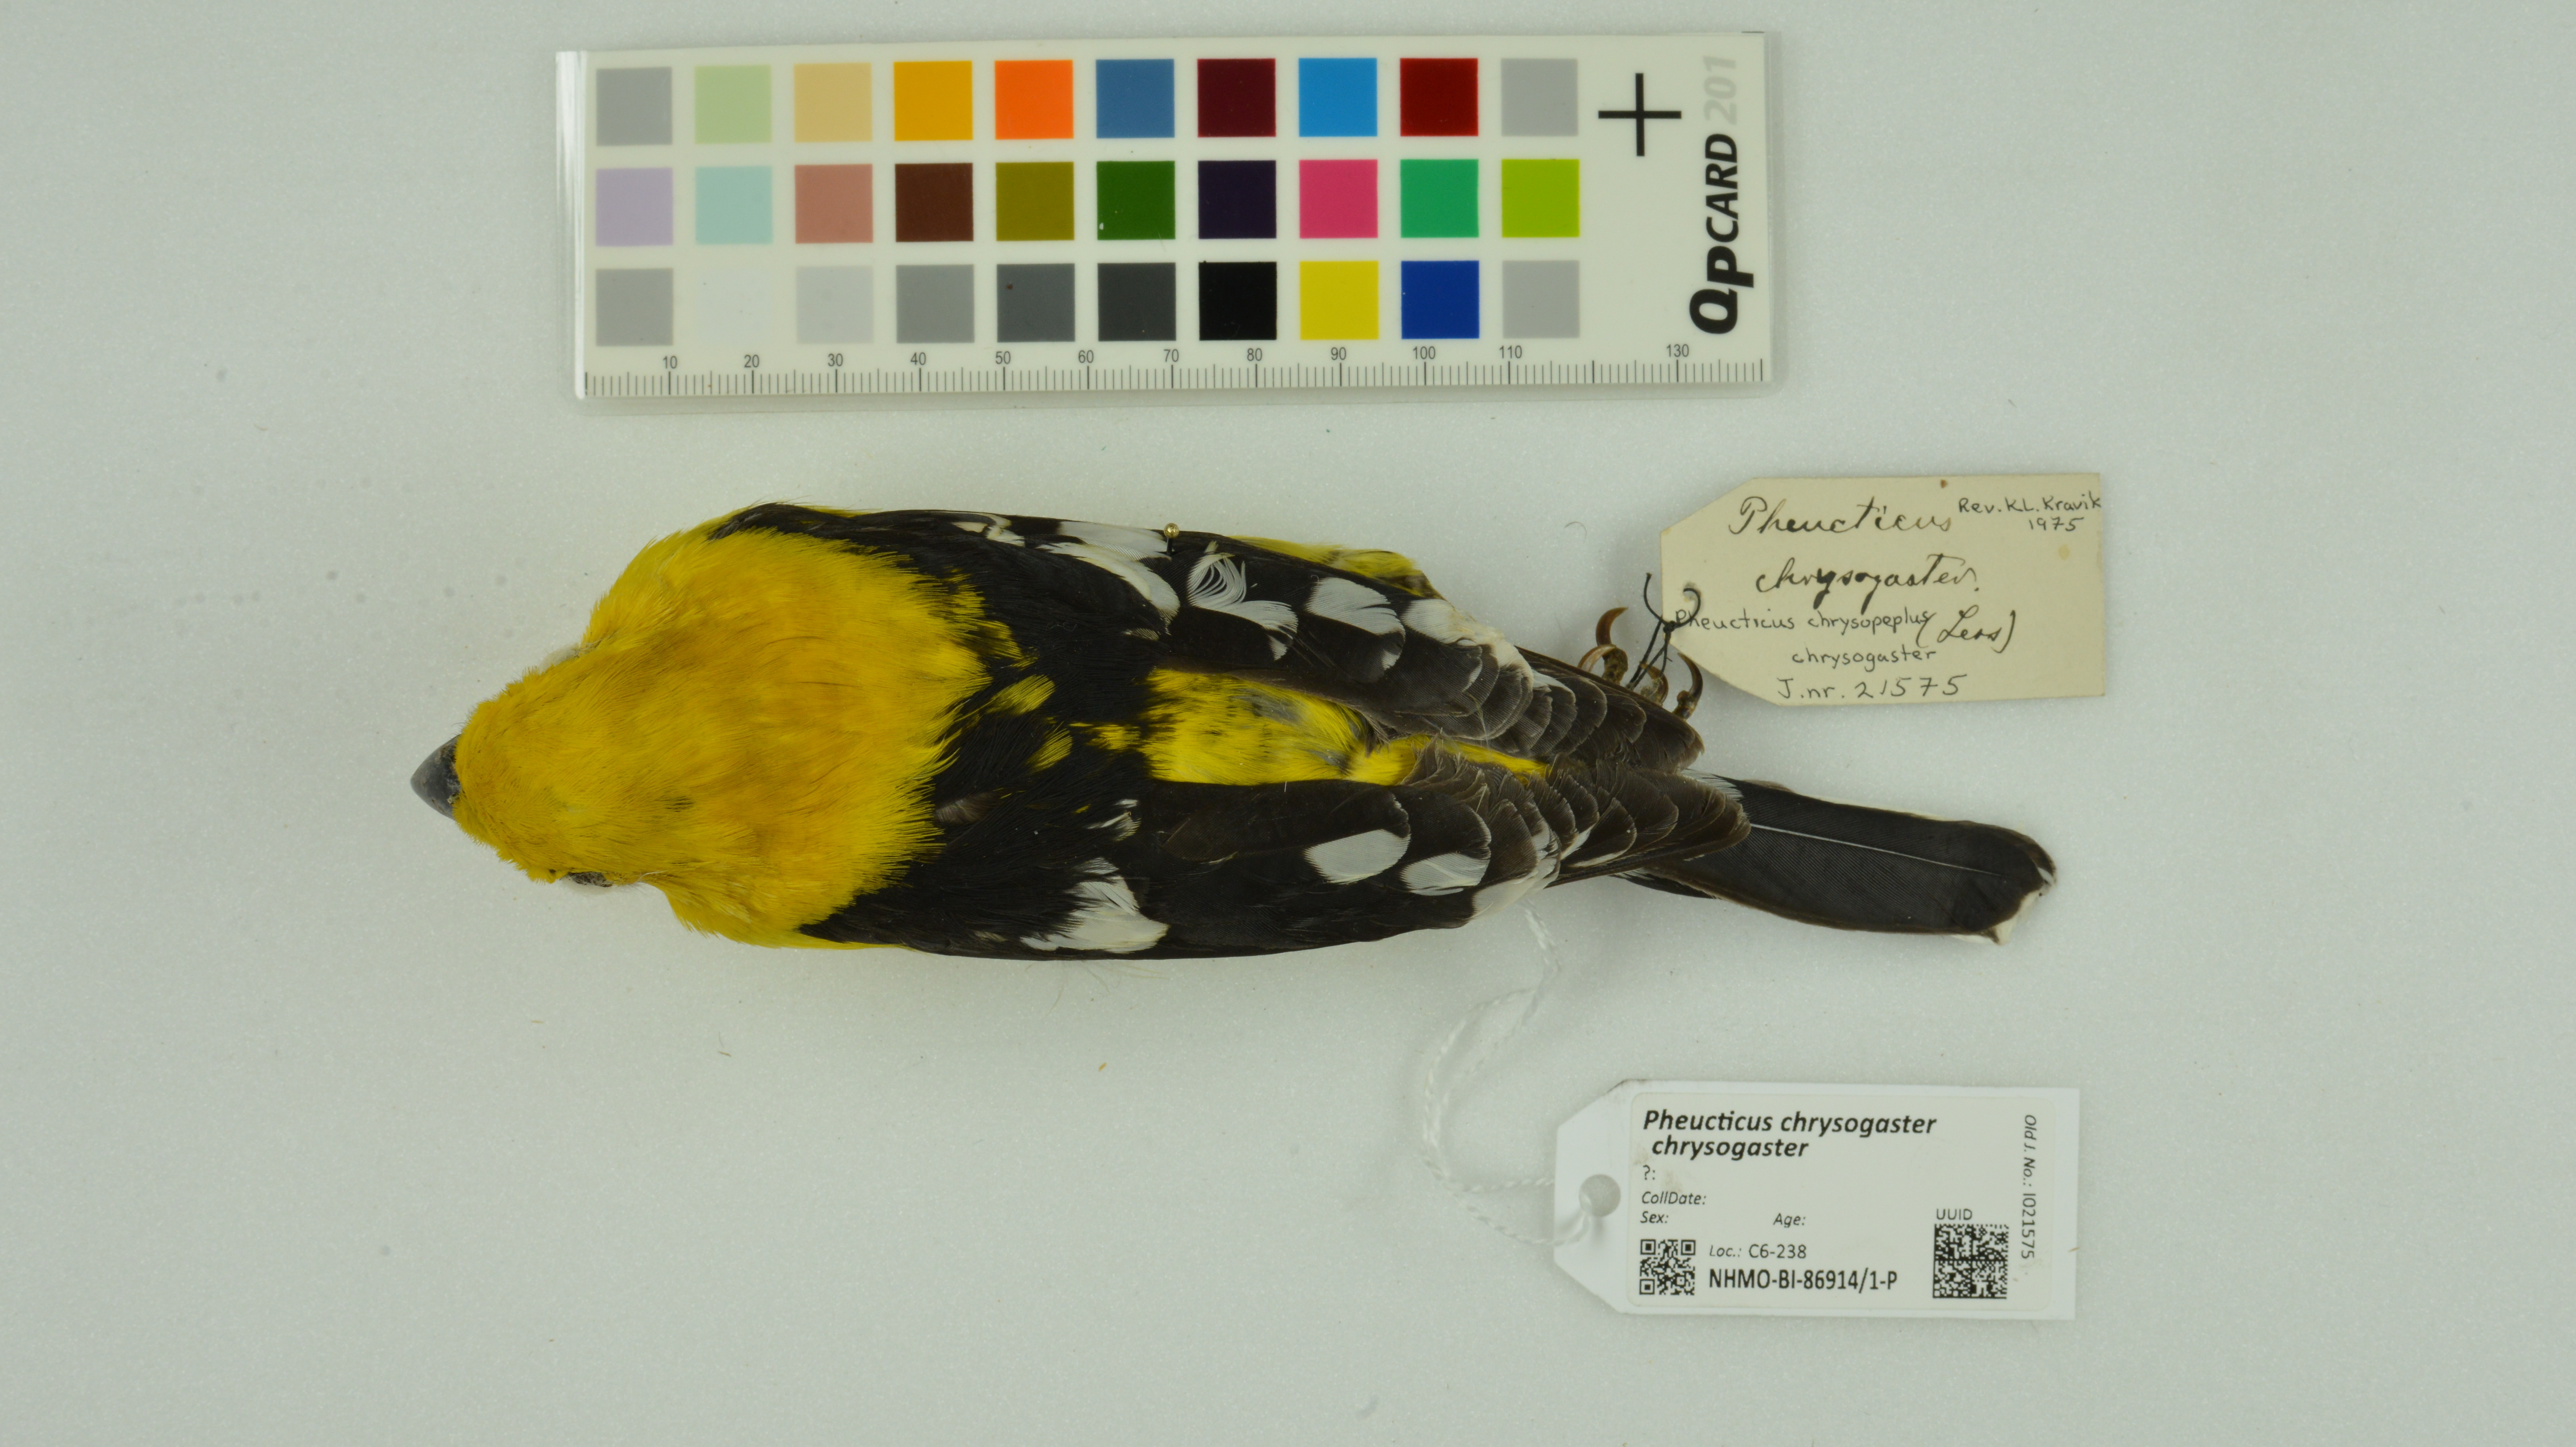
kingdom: Animalia
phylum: Chordata
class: Aves
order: Passeriformes
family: Cardinalidae
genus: Pheucticus
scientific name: Pheucticus chrysogaster
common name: Golden grosbeak
